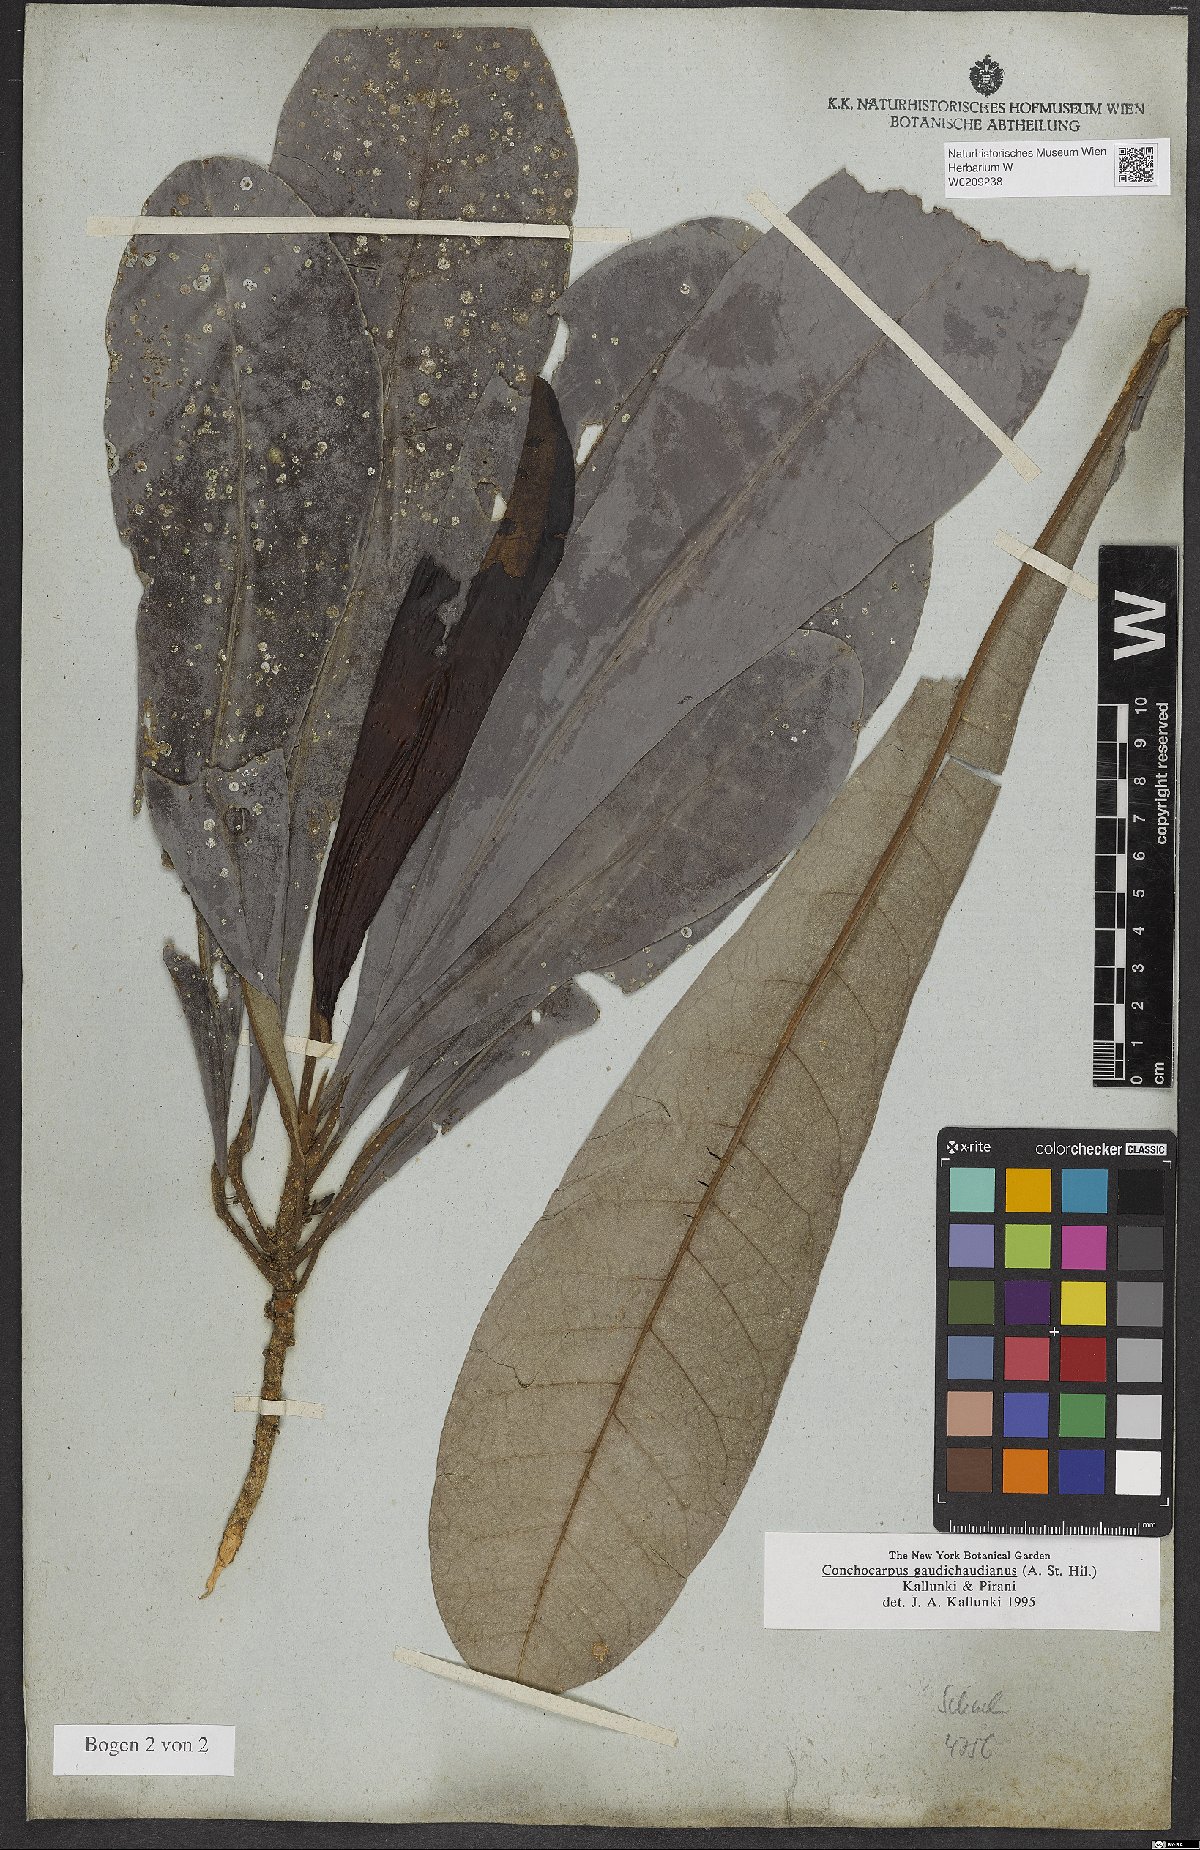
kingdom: Plantae
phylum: Tracheophyta
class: Magnoliopsida
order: Sapindales
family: Rutaceae
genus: Dryades
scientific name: Dryades gaudichaudiana
